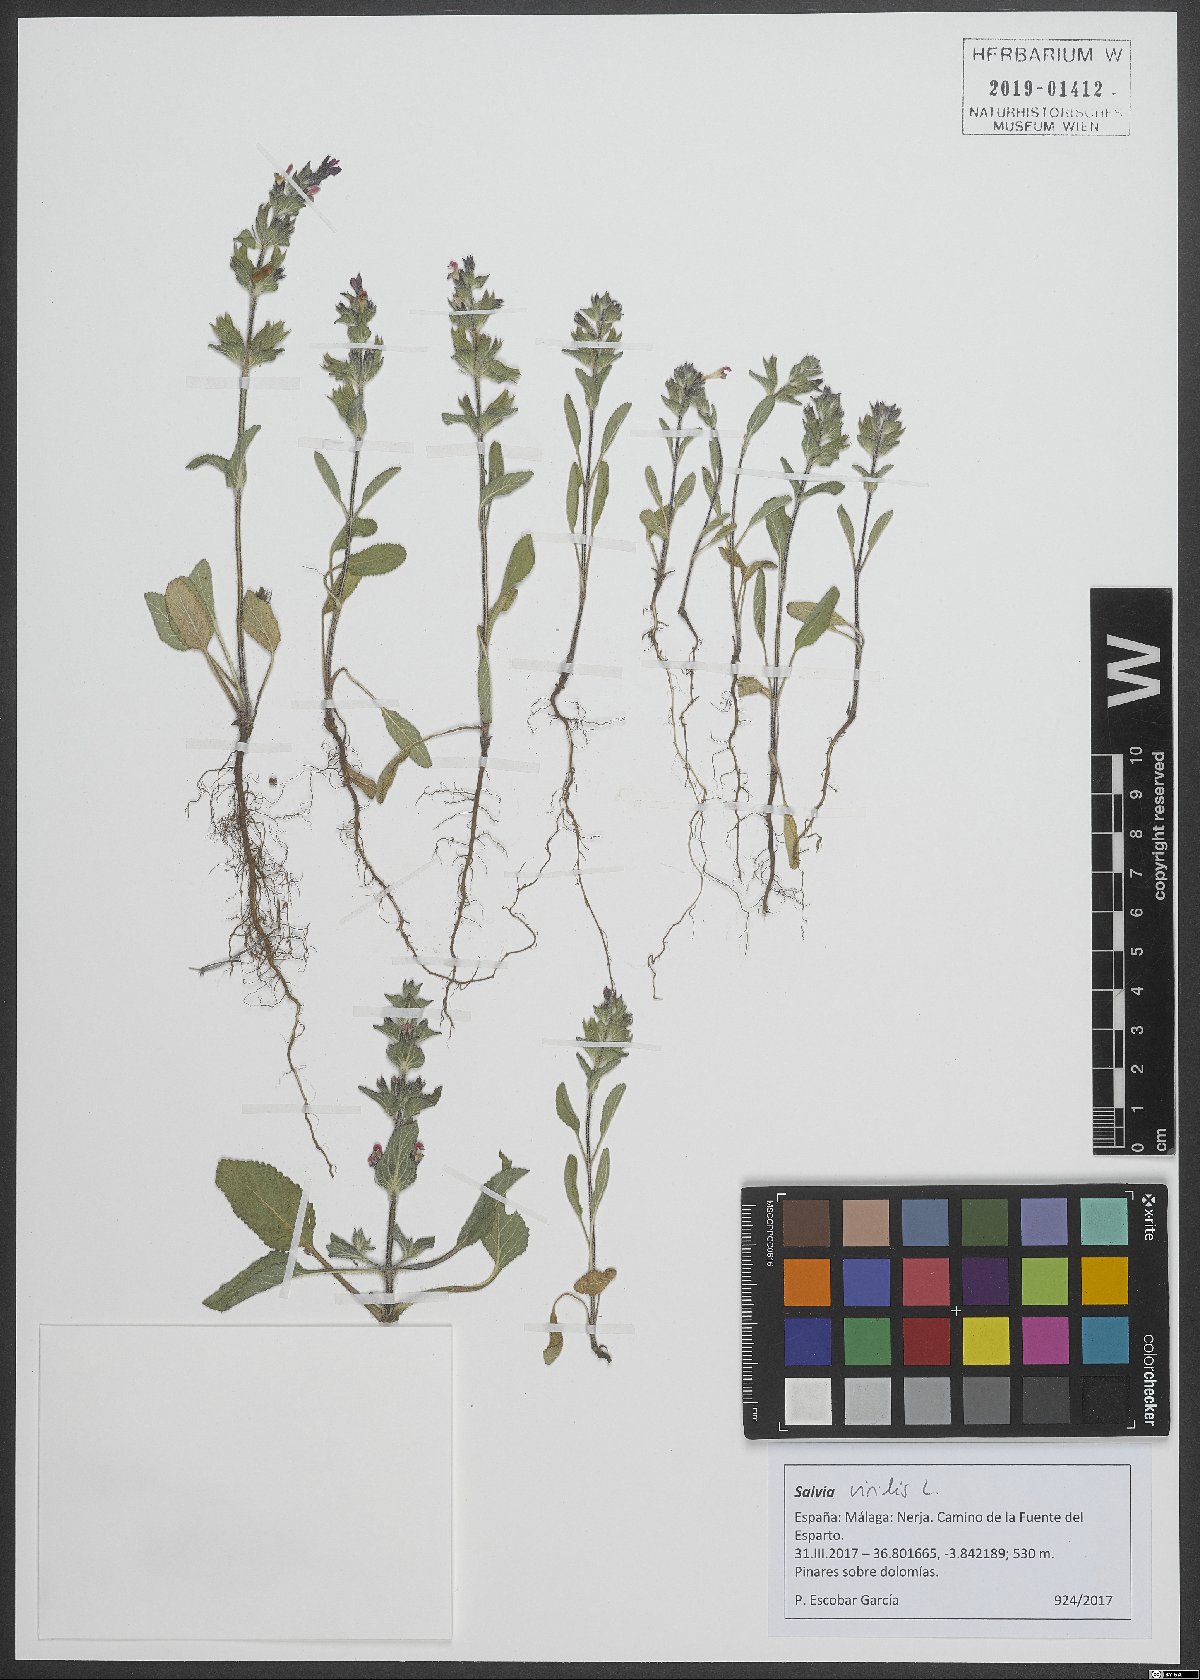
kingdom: Plantae
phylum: Tracheophyta
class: Magnoliopsida
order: Lamiales
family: Lamiaceae
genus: Salvia
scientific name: Salvia viridis
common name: Annual clary
